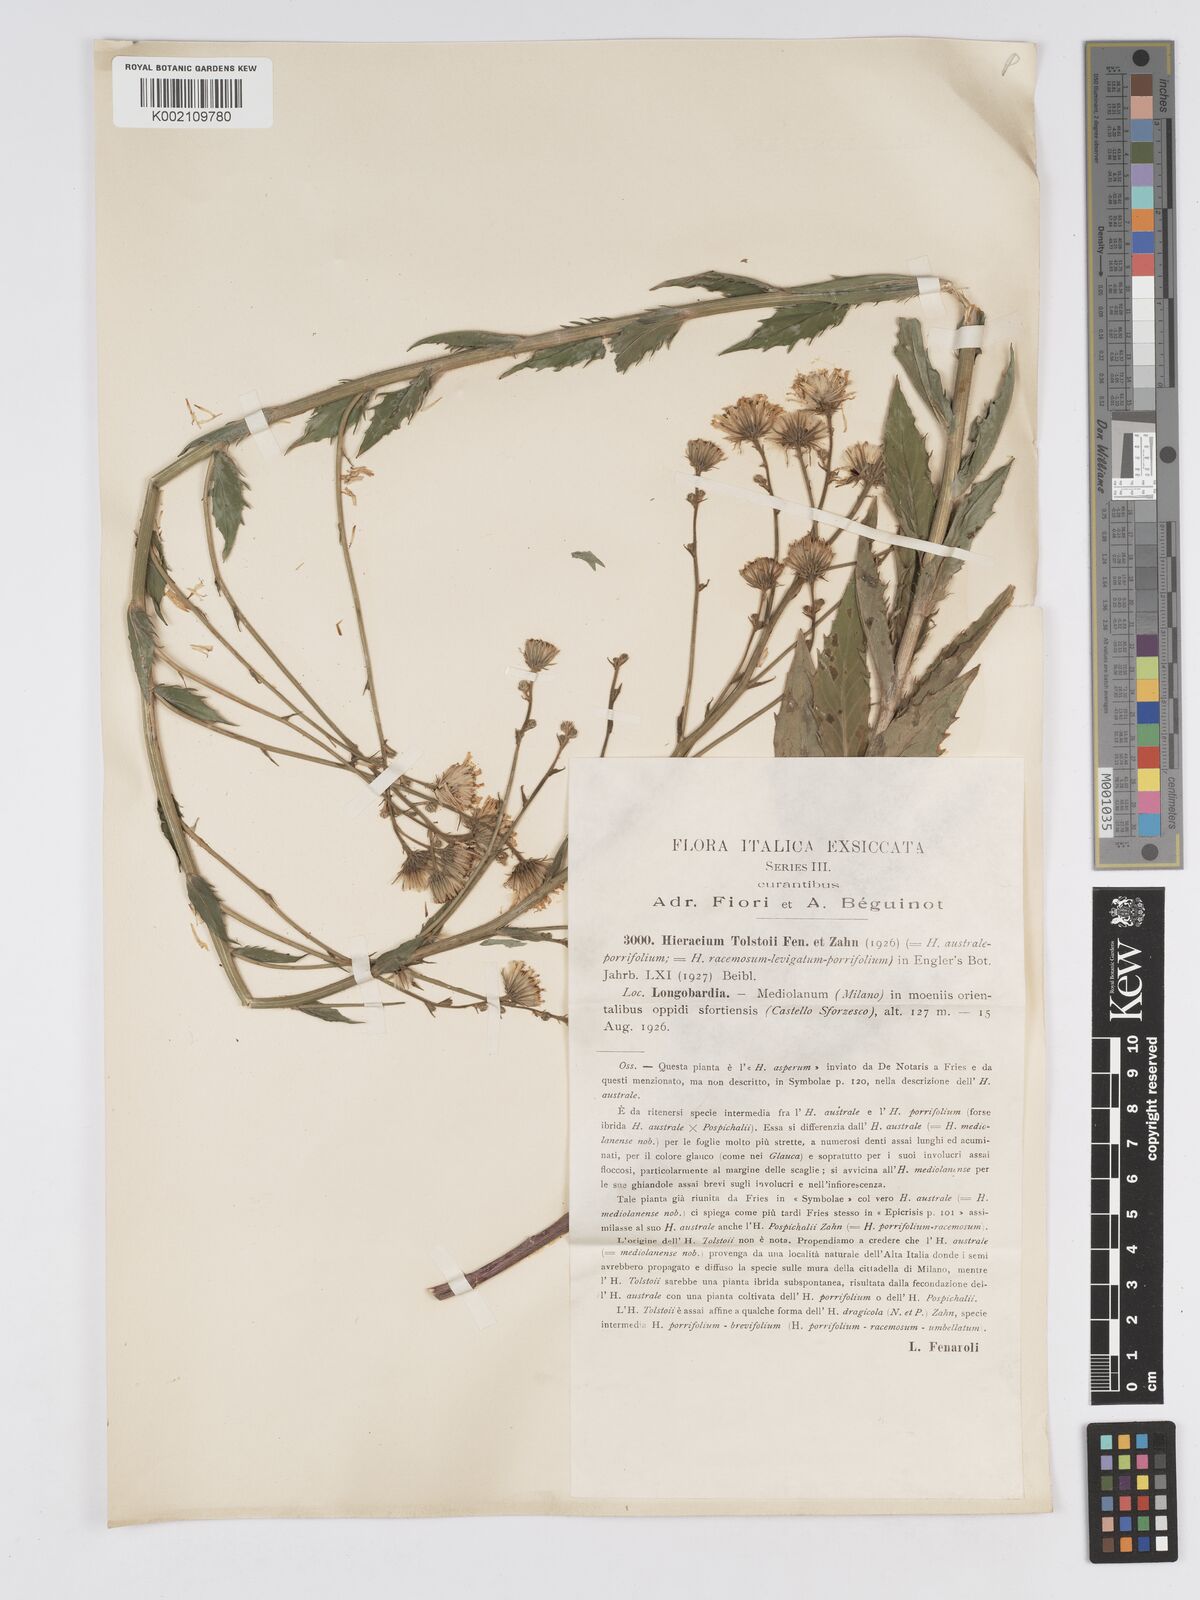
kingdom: Plantae
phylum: Tracheophyta
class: Magnoliopsida
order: Asterales
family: Asteraceae
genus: Hieracium
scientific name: Hieracium tolstoii
